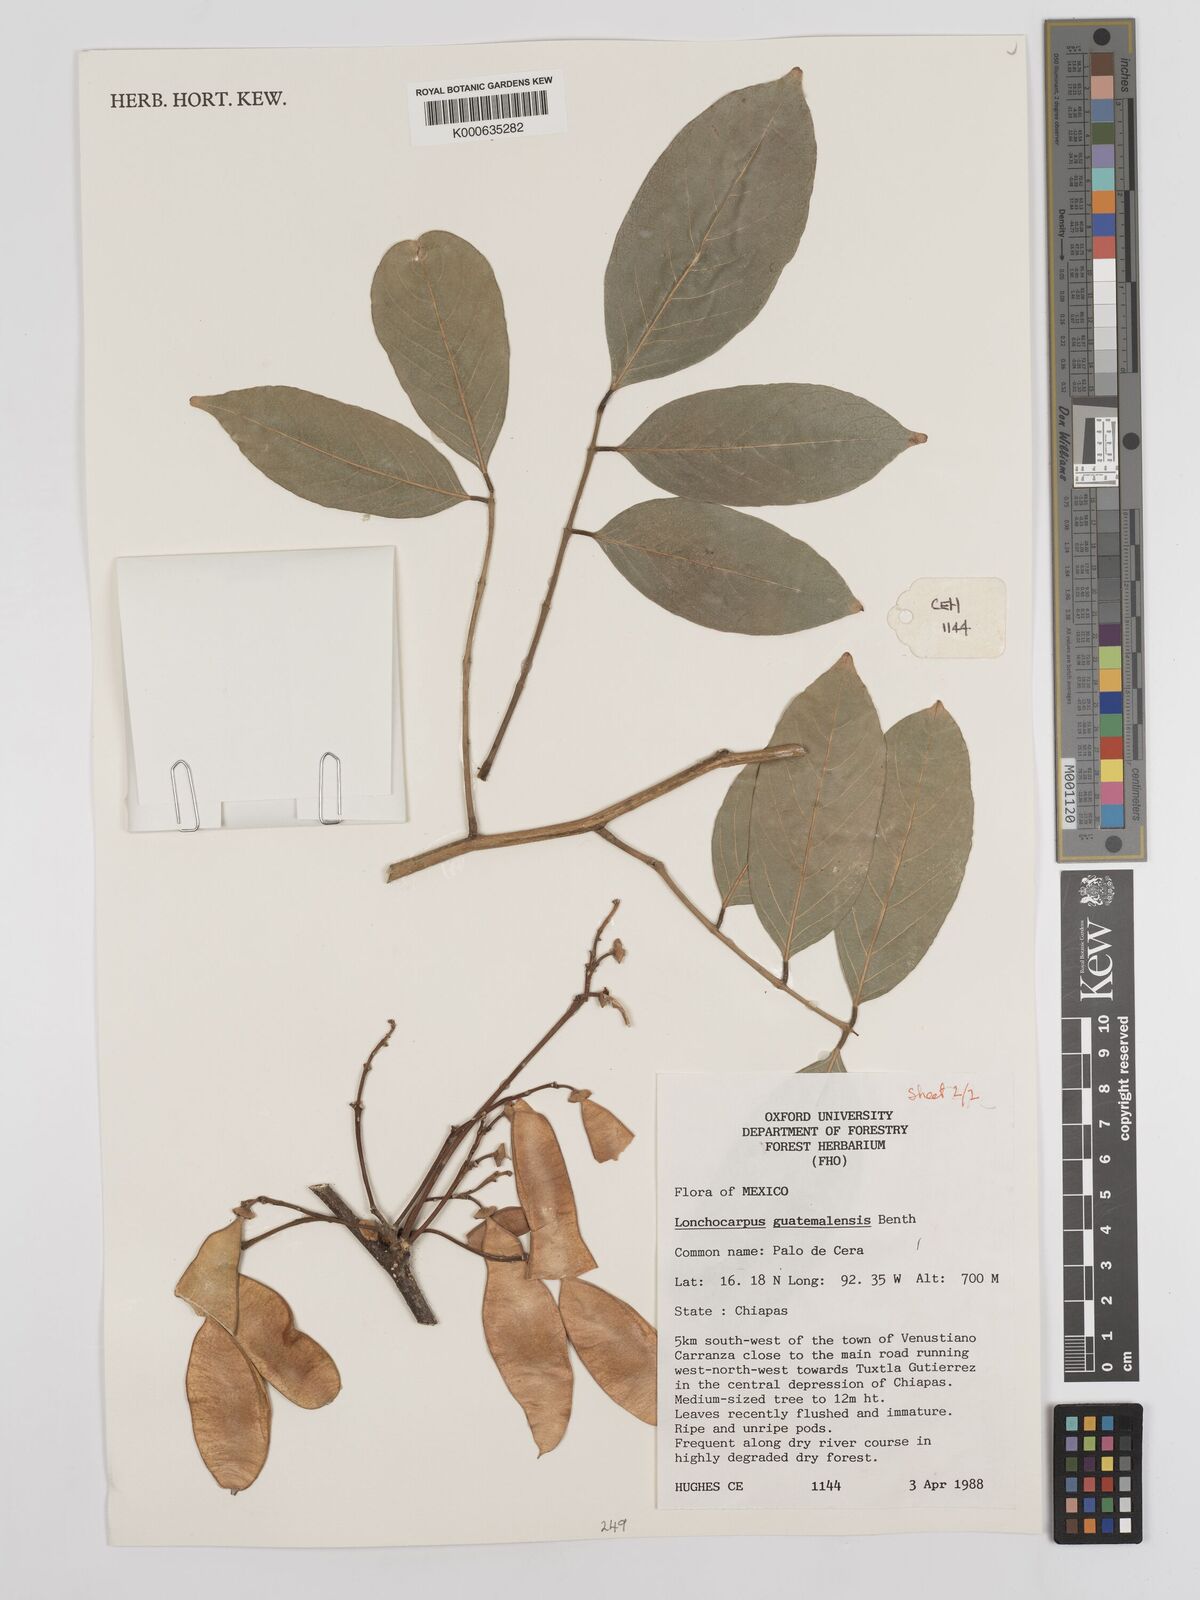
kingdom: Plantae
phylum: Tracheophyta
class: Magnoliopsida
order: Fabales
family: Fabaceae
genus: Lonchocarpus
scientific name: Lonchocarpus guatemalensis
